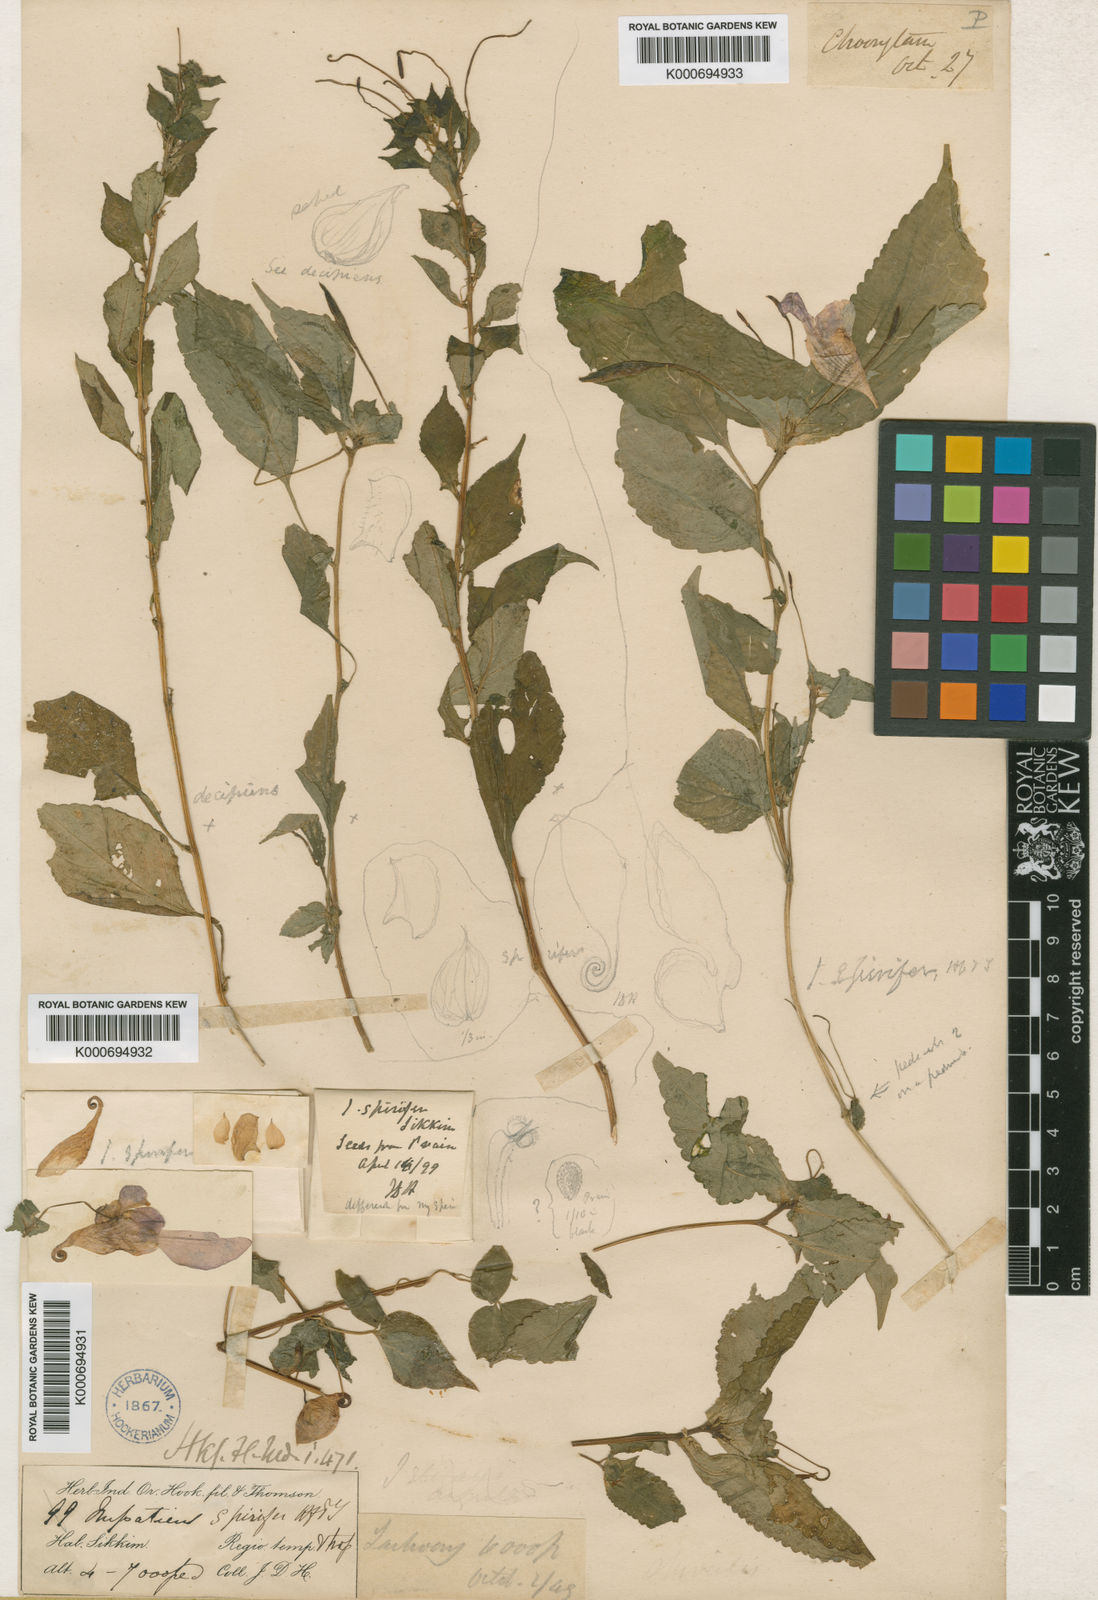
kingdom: Plantae
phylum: Tracheophyta
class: Magnoliopsida
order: Ericales
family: Balsaminaceae
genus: Impatiens
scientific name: Impatiens spirifera
